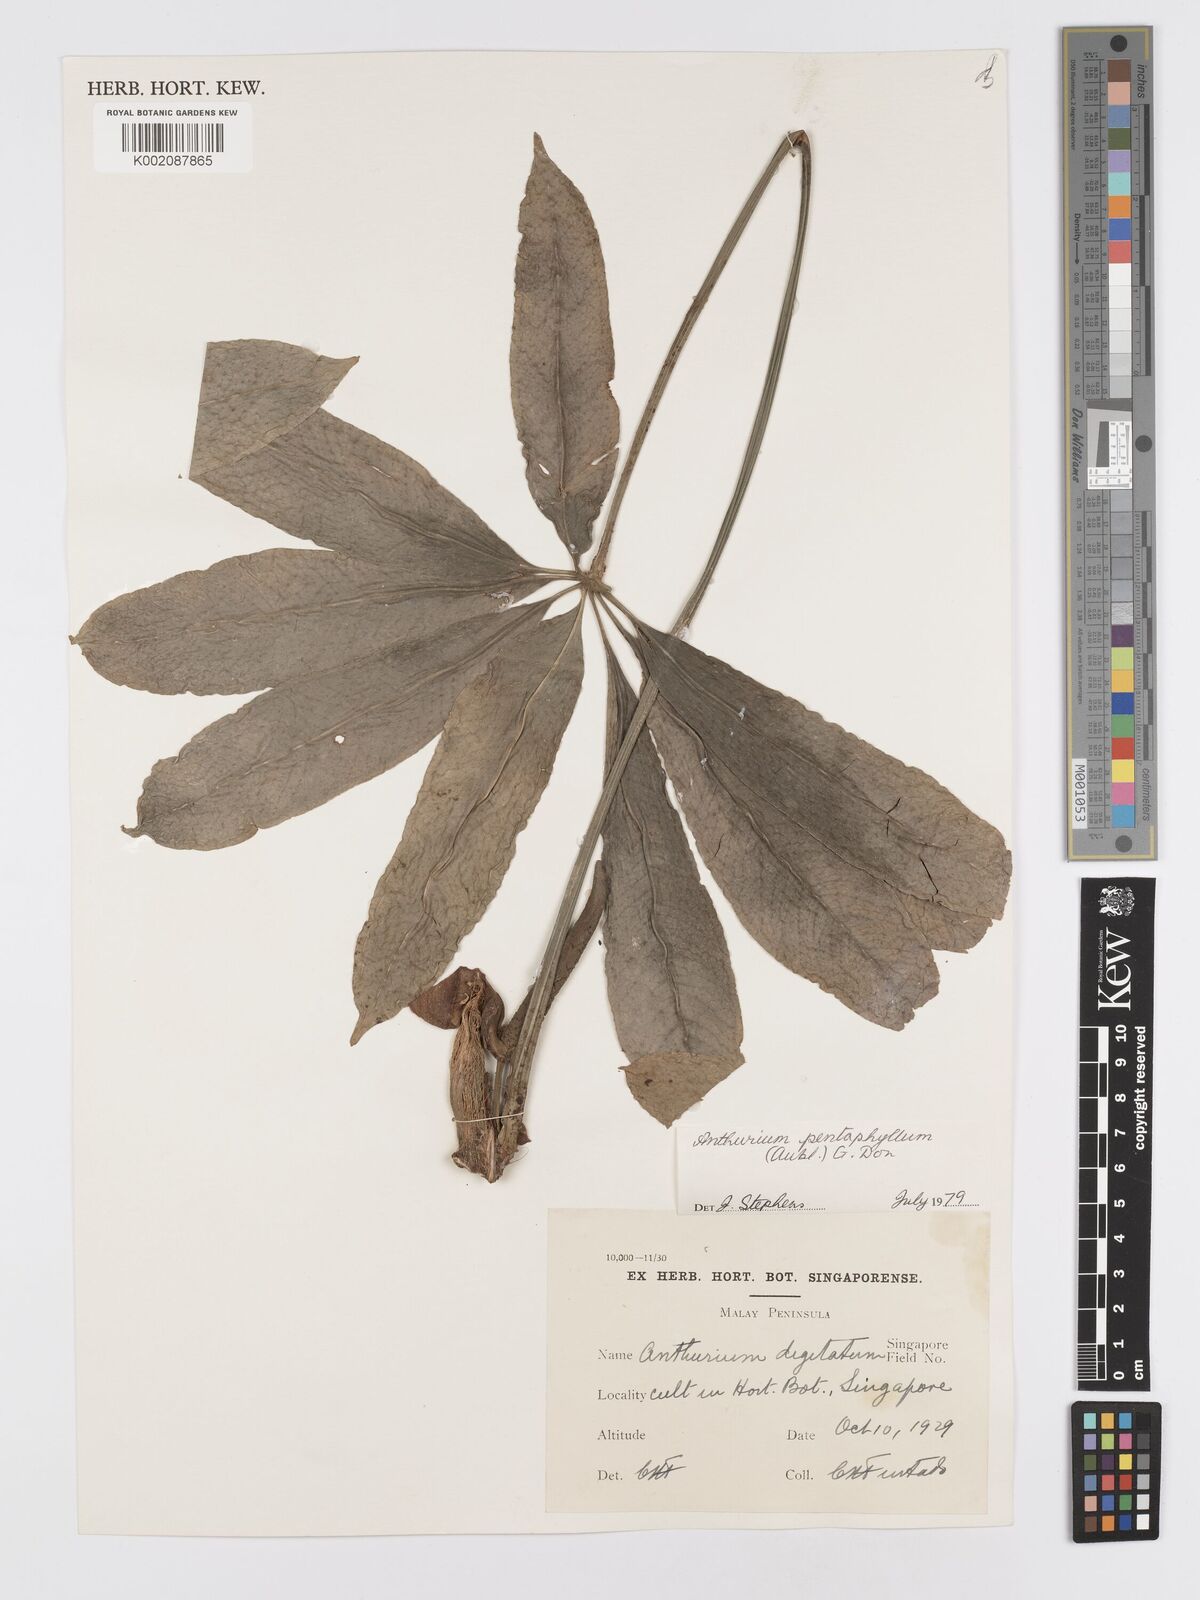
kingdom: Plantae
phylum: Tracheophyta
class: Liliopsida
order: Alismatales
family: Araceae
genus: Anthurium
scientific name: Anthurium pentaphyllum
